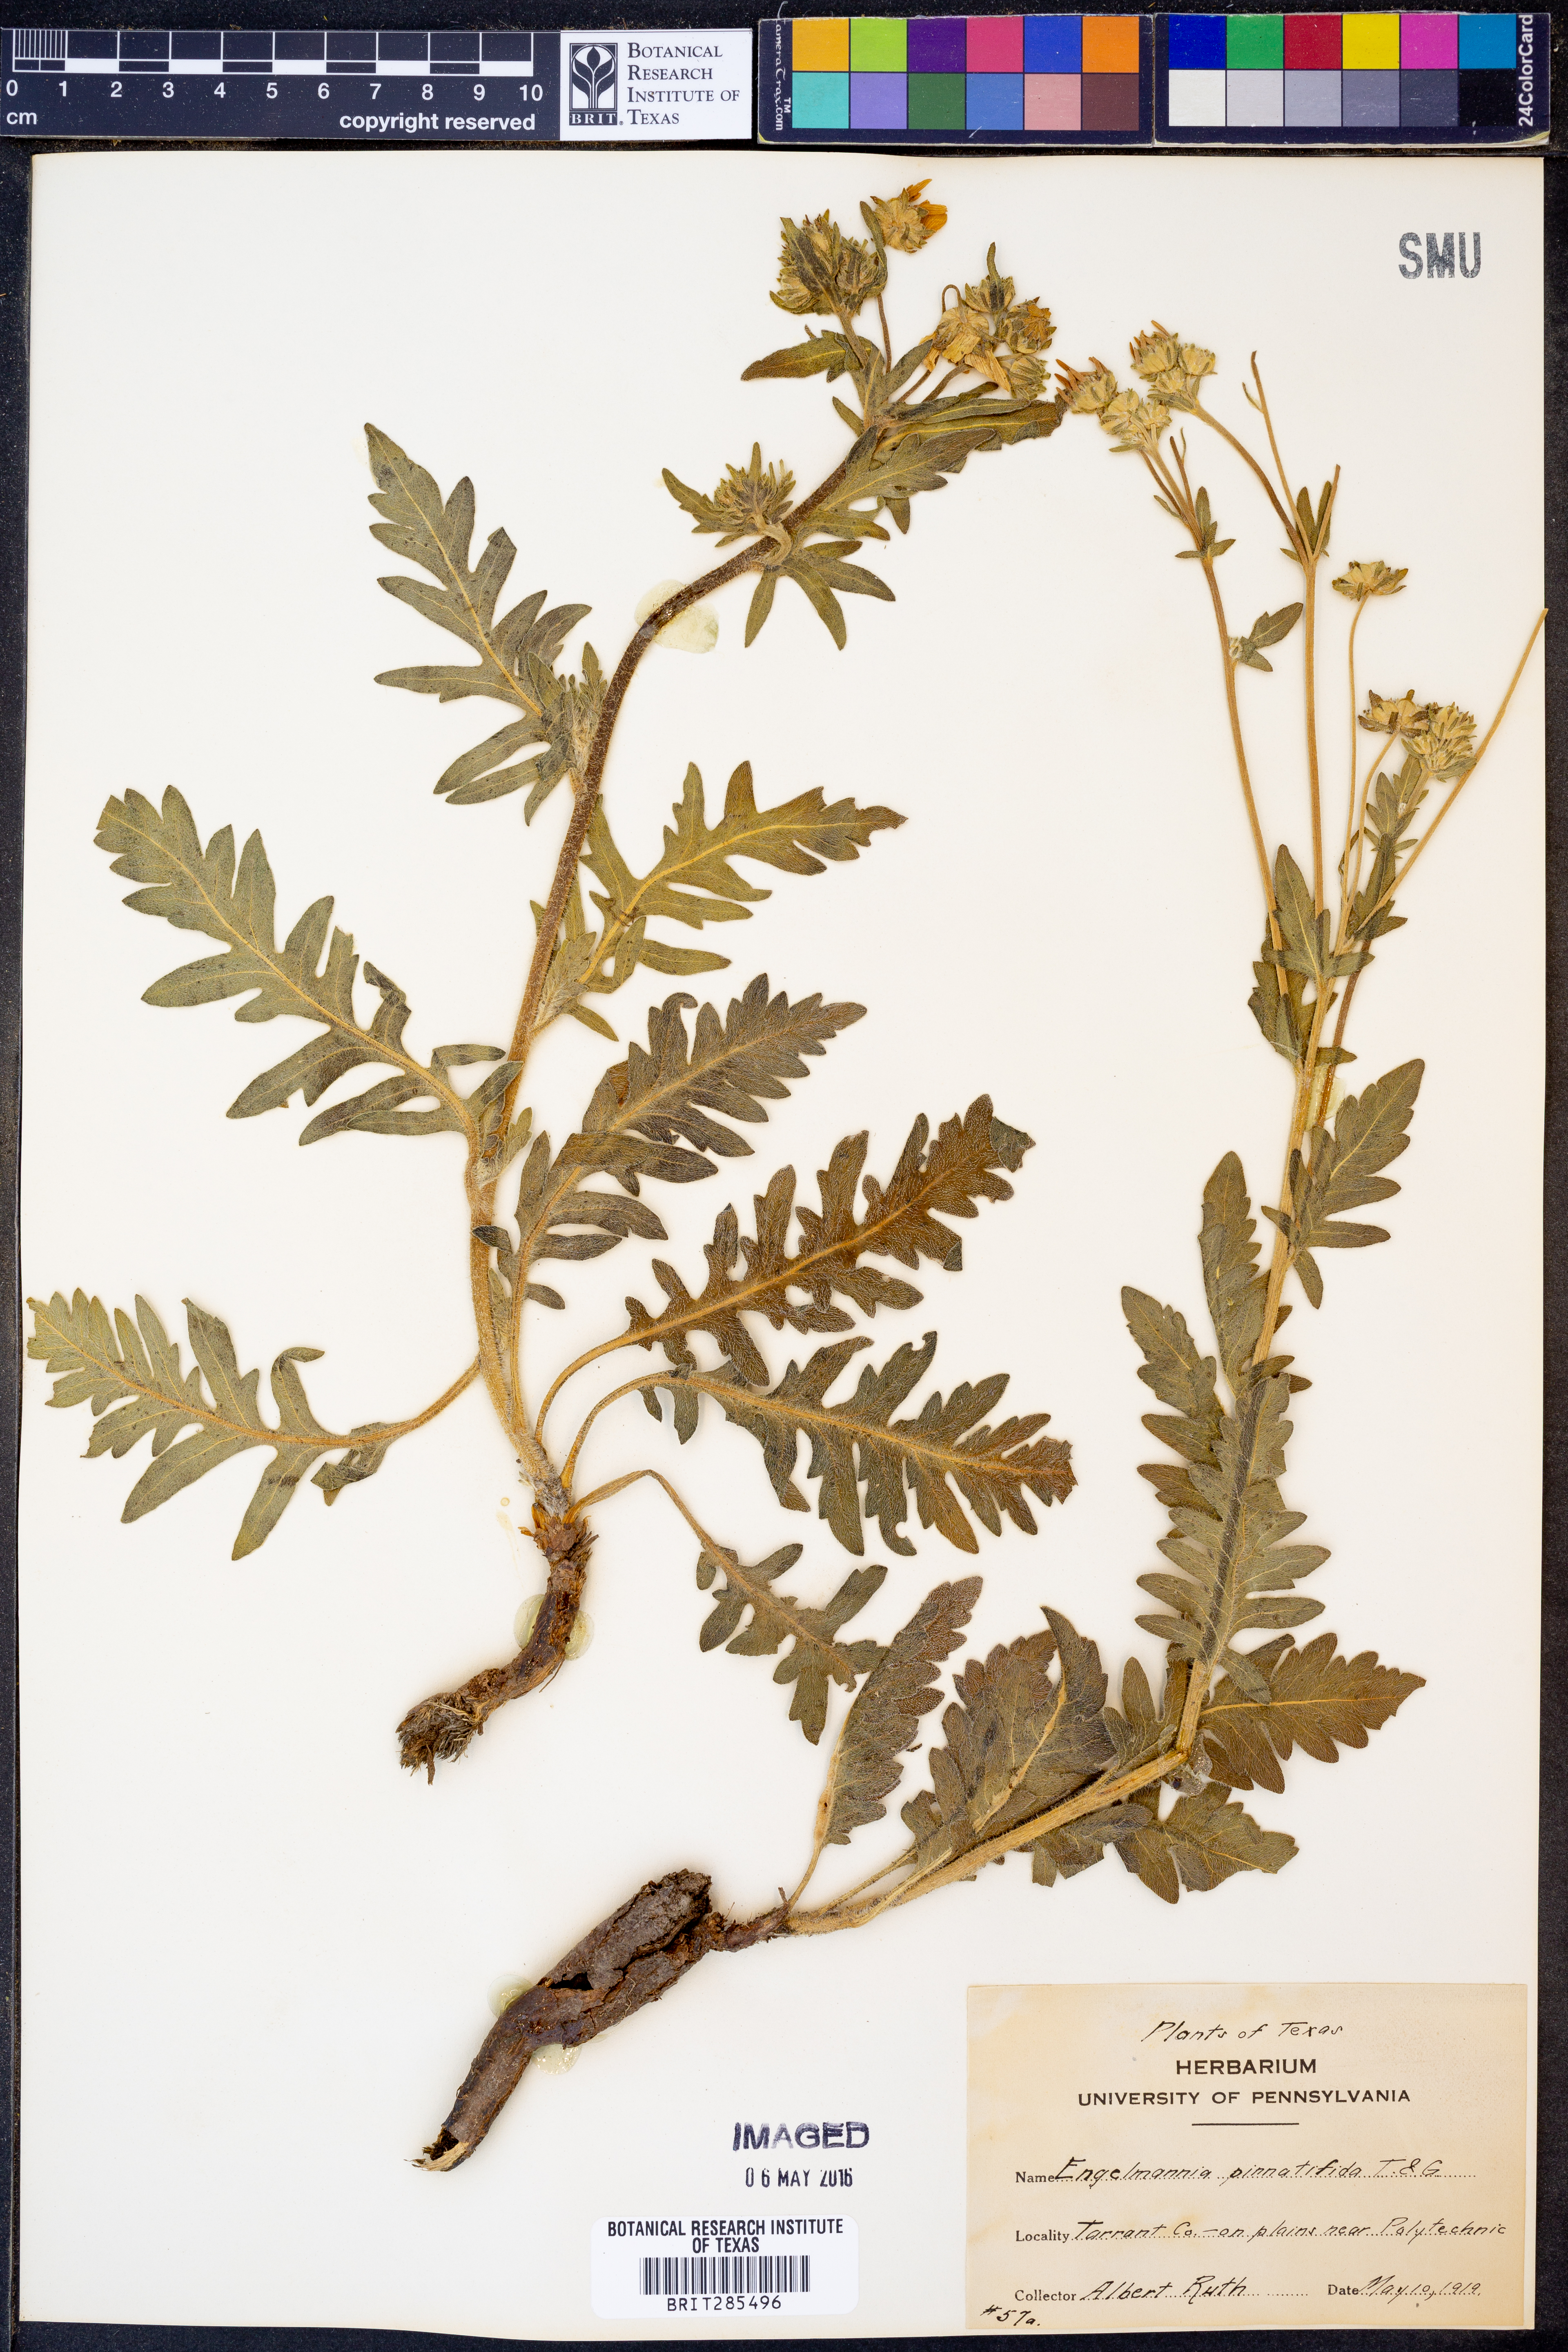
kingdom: Plantae
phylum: Tracheophyta
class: Magnoliopsida
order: Asterales
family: Asteraceae
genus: Engelmannia
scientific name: Engelmannia peristenia
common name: Engelmann's daisy
